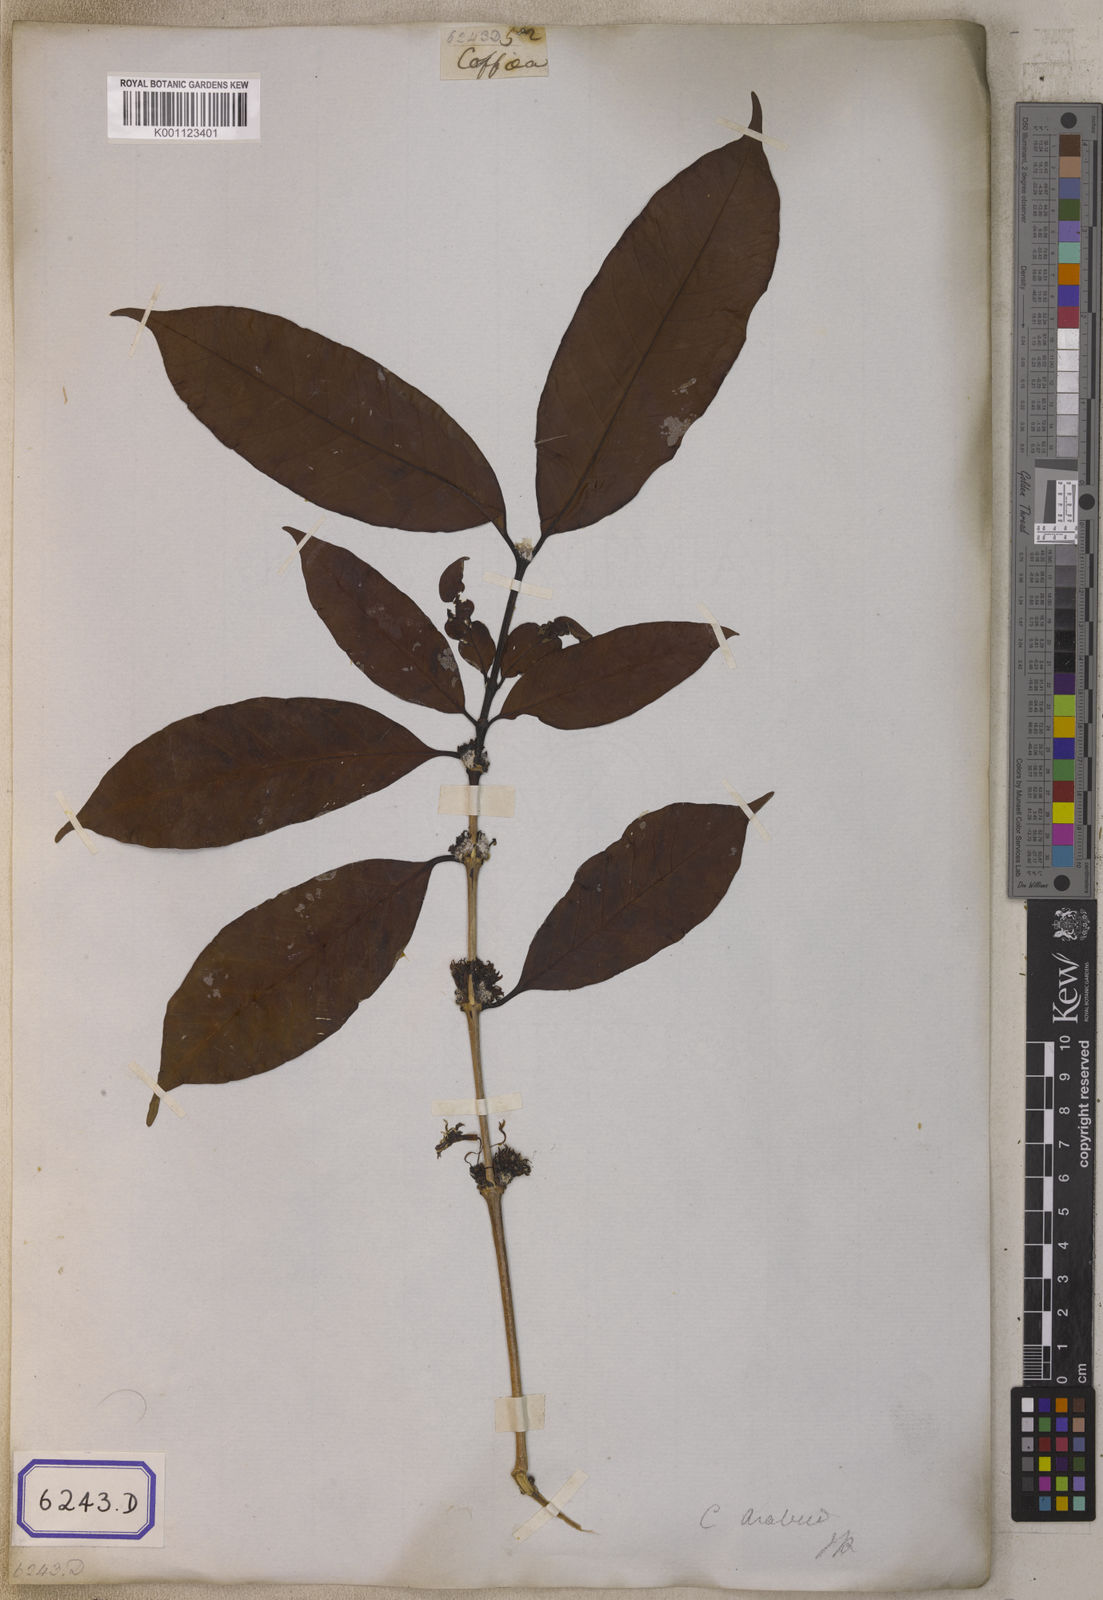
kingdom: Plantae
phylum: Tracheophyta
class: Magnoliopsida
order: Gentianales
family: Rubiaceae
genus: Coffea
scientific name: Coffea arabica
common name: Coffee
